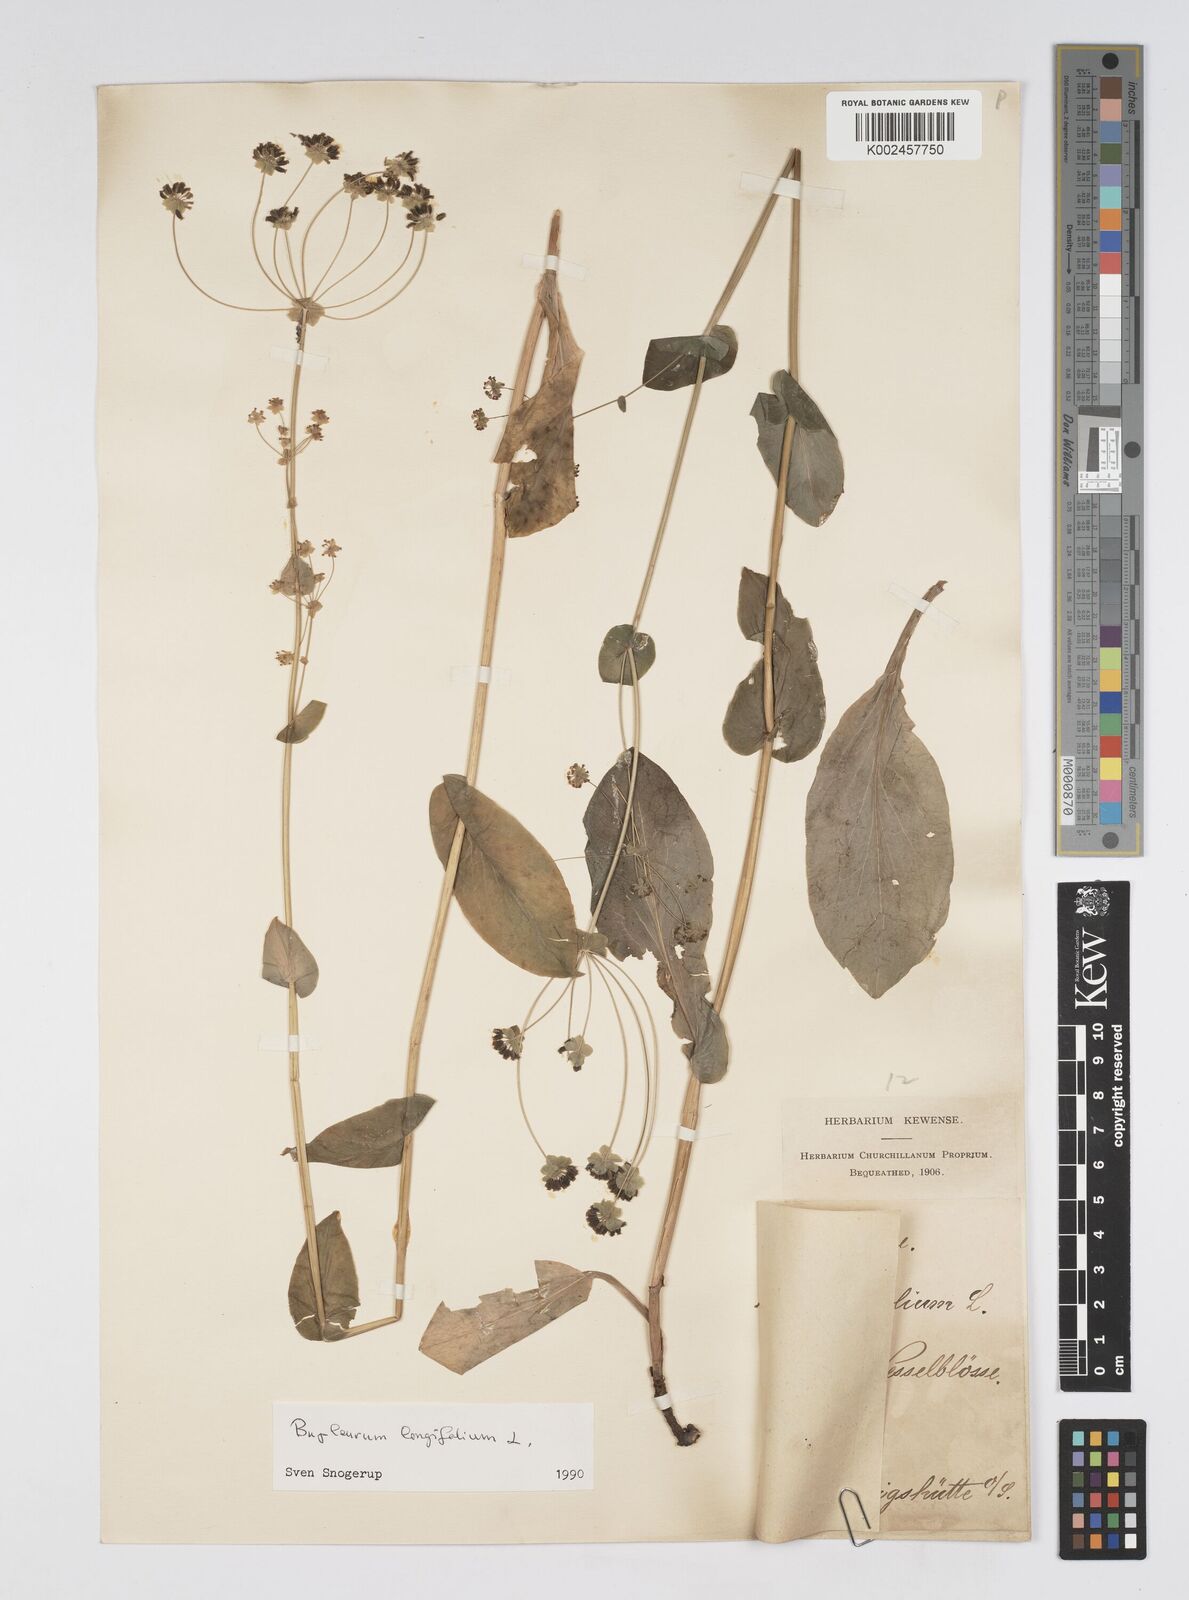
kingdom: Plantae
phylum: Tracheophyta
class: Magnoliopsida
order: Apiales
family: Apiaceae
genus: Bupleurum
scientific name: Bupleurum longifolium
